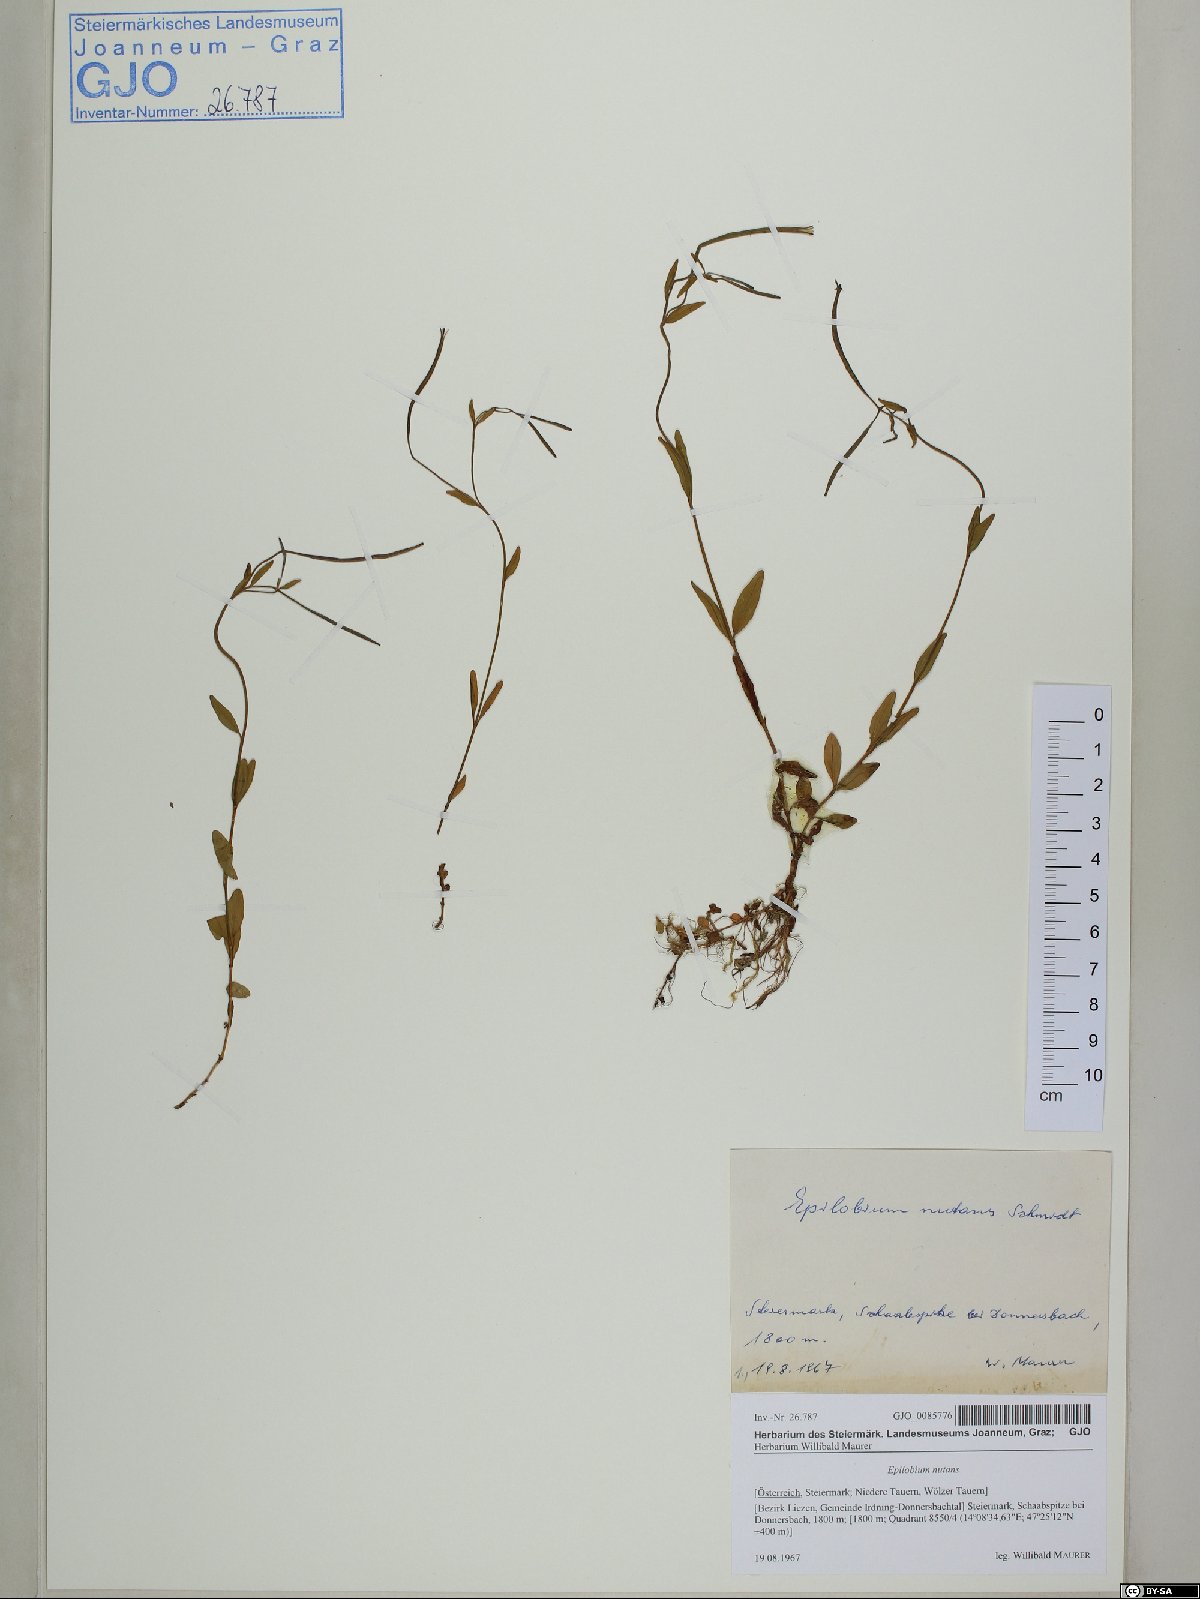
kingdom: Plantae
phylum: Tracheophyta
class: Magnoliopsida
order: Myrtales
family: Onagraceae
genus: Epilobium
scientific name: Epilobium nutans
